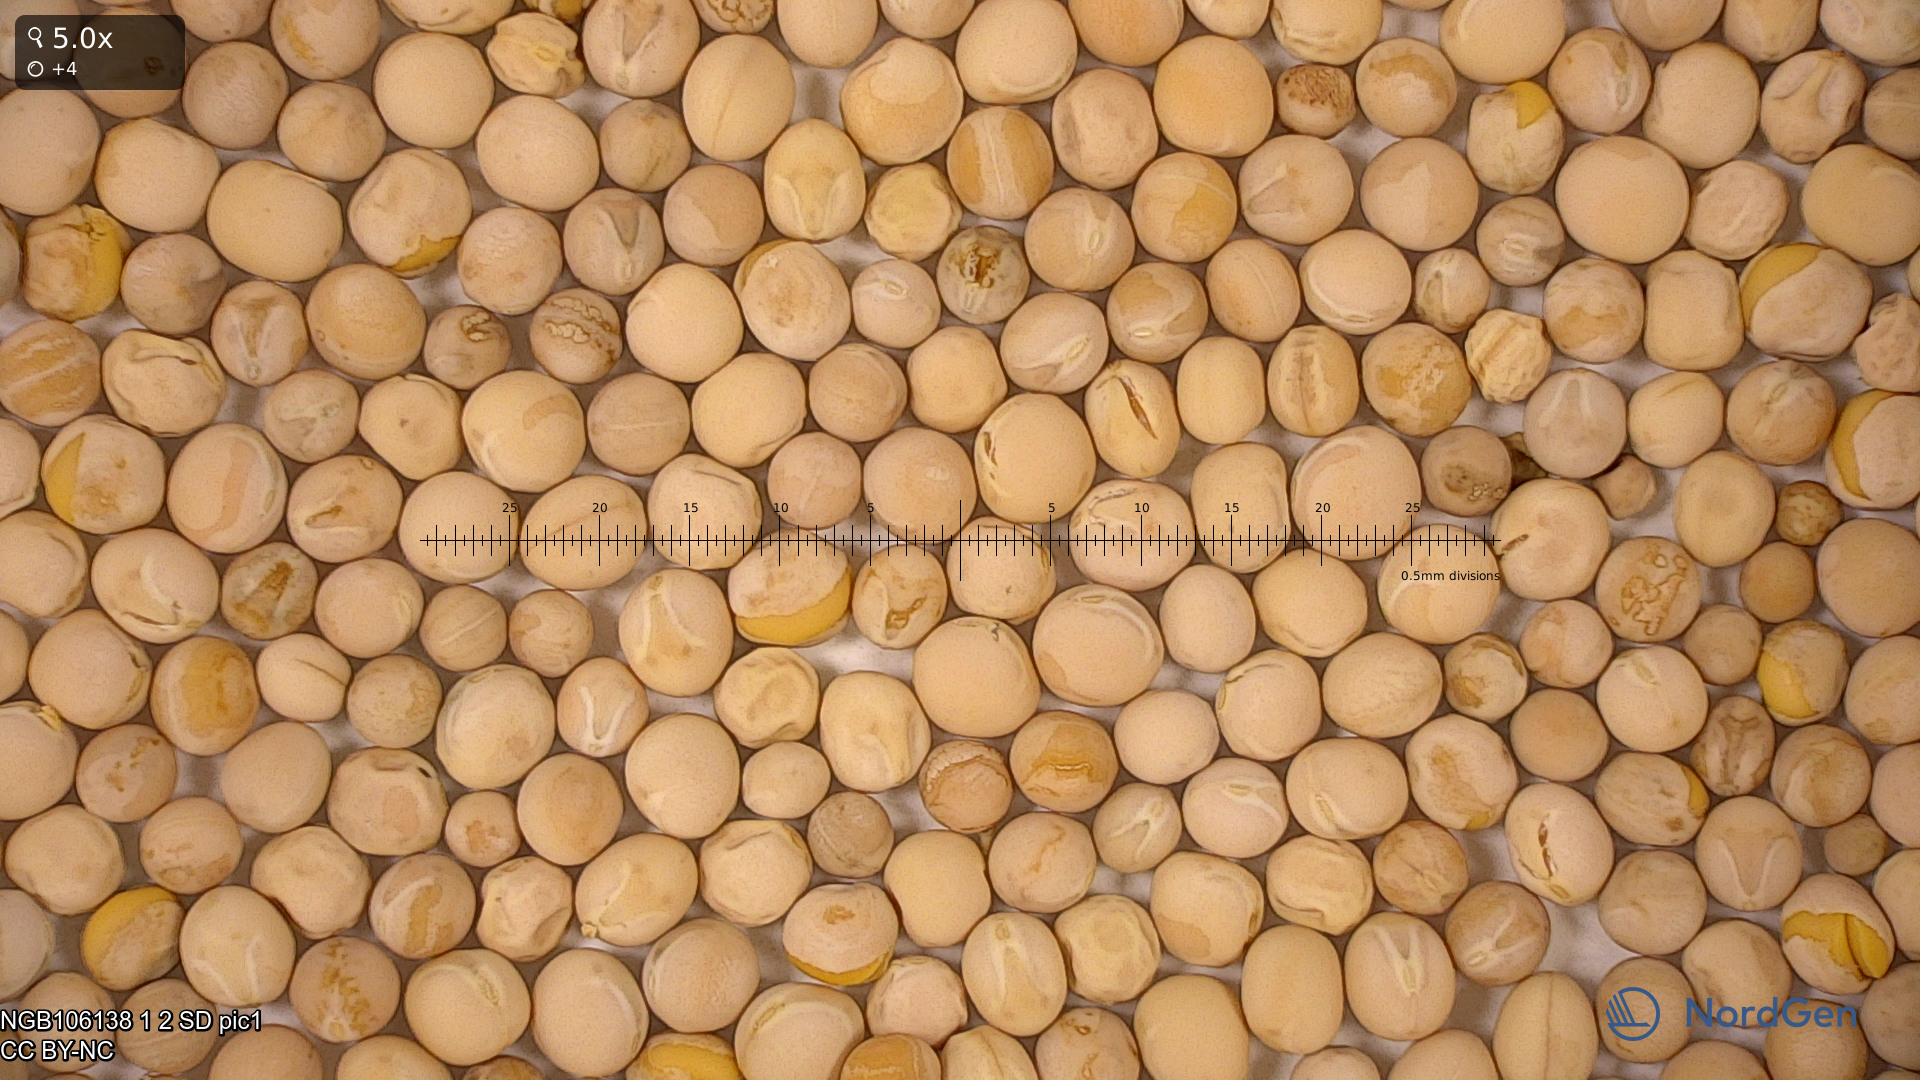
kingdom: Plantae
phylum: Tracheophyta
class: Magnoliopsida
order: Fabales
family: Fabaceae
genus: Lathyrus
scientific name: Lathyrus oleraceus
